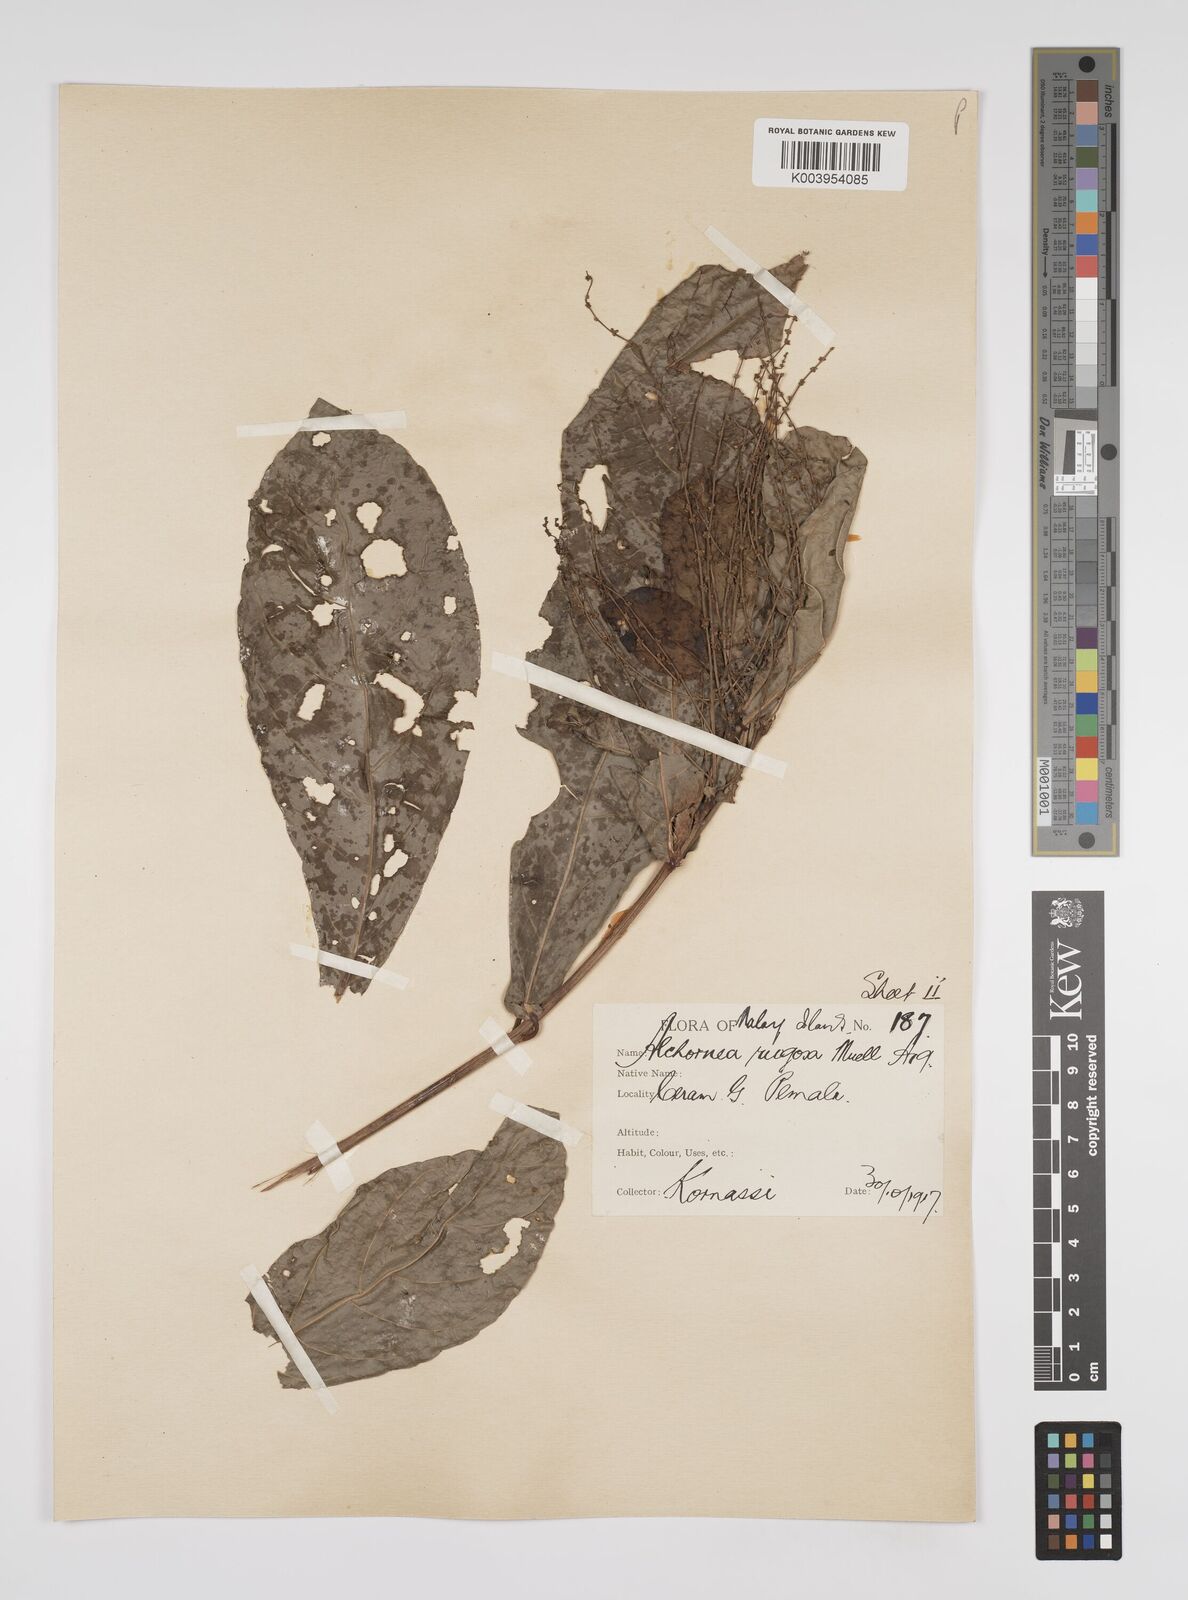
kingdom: Plantae
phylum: Tracheophyta
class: Magnoliopsida
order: Malpighiales
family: Euphorbiaceae
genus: Alchornea
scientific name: Alchornea rugosa
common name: Alchorntree
